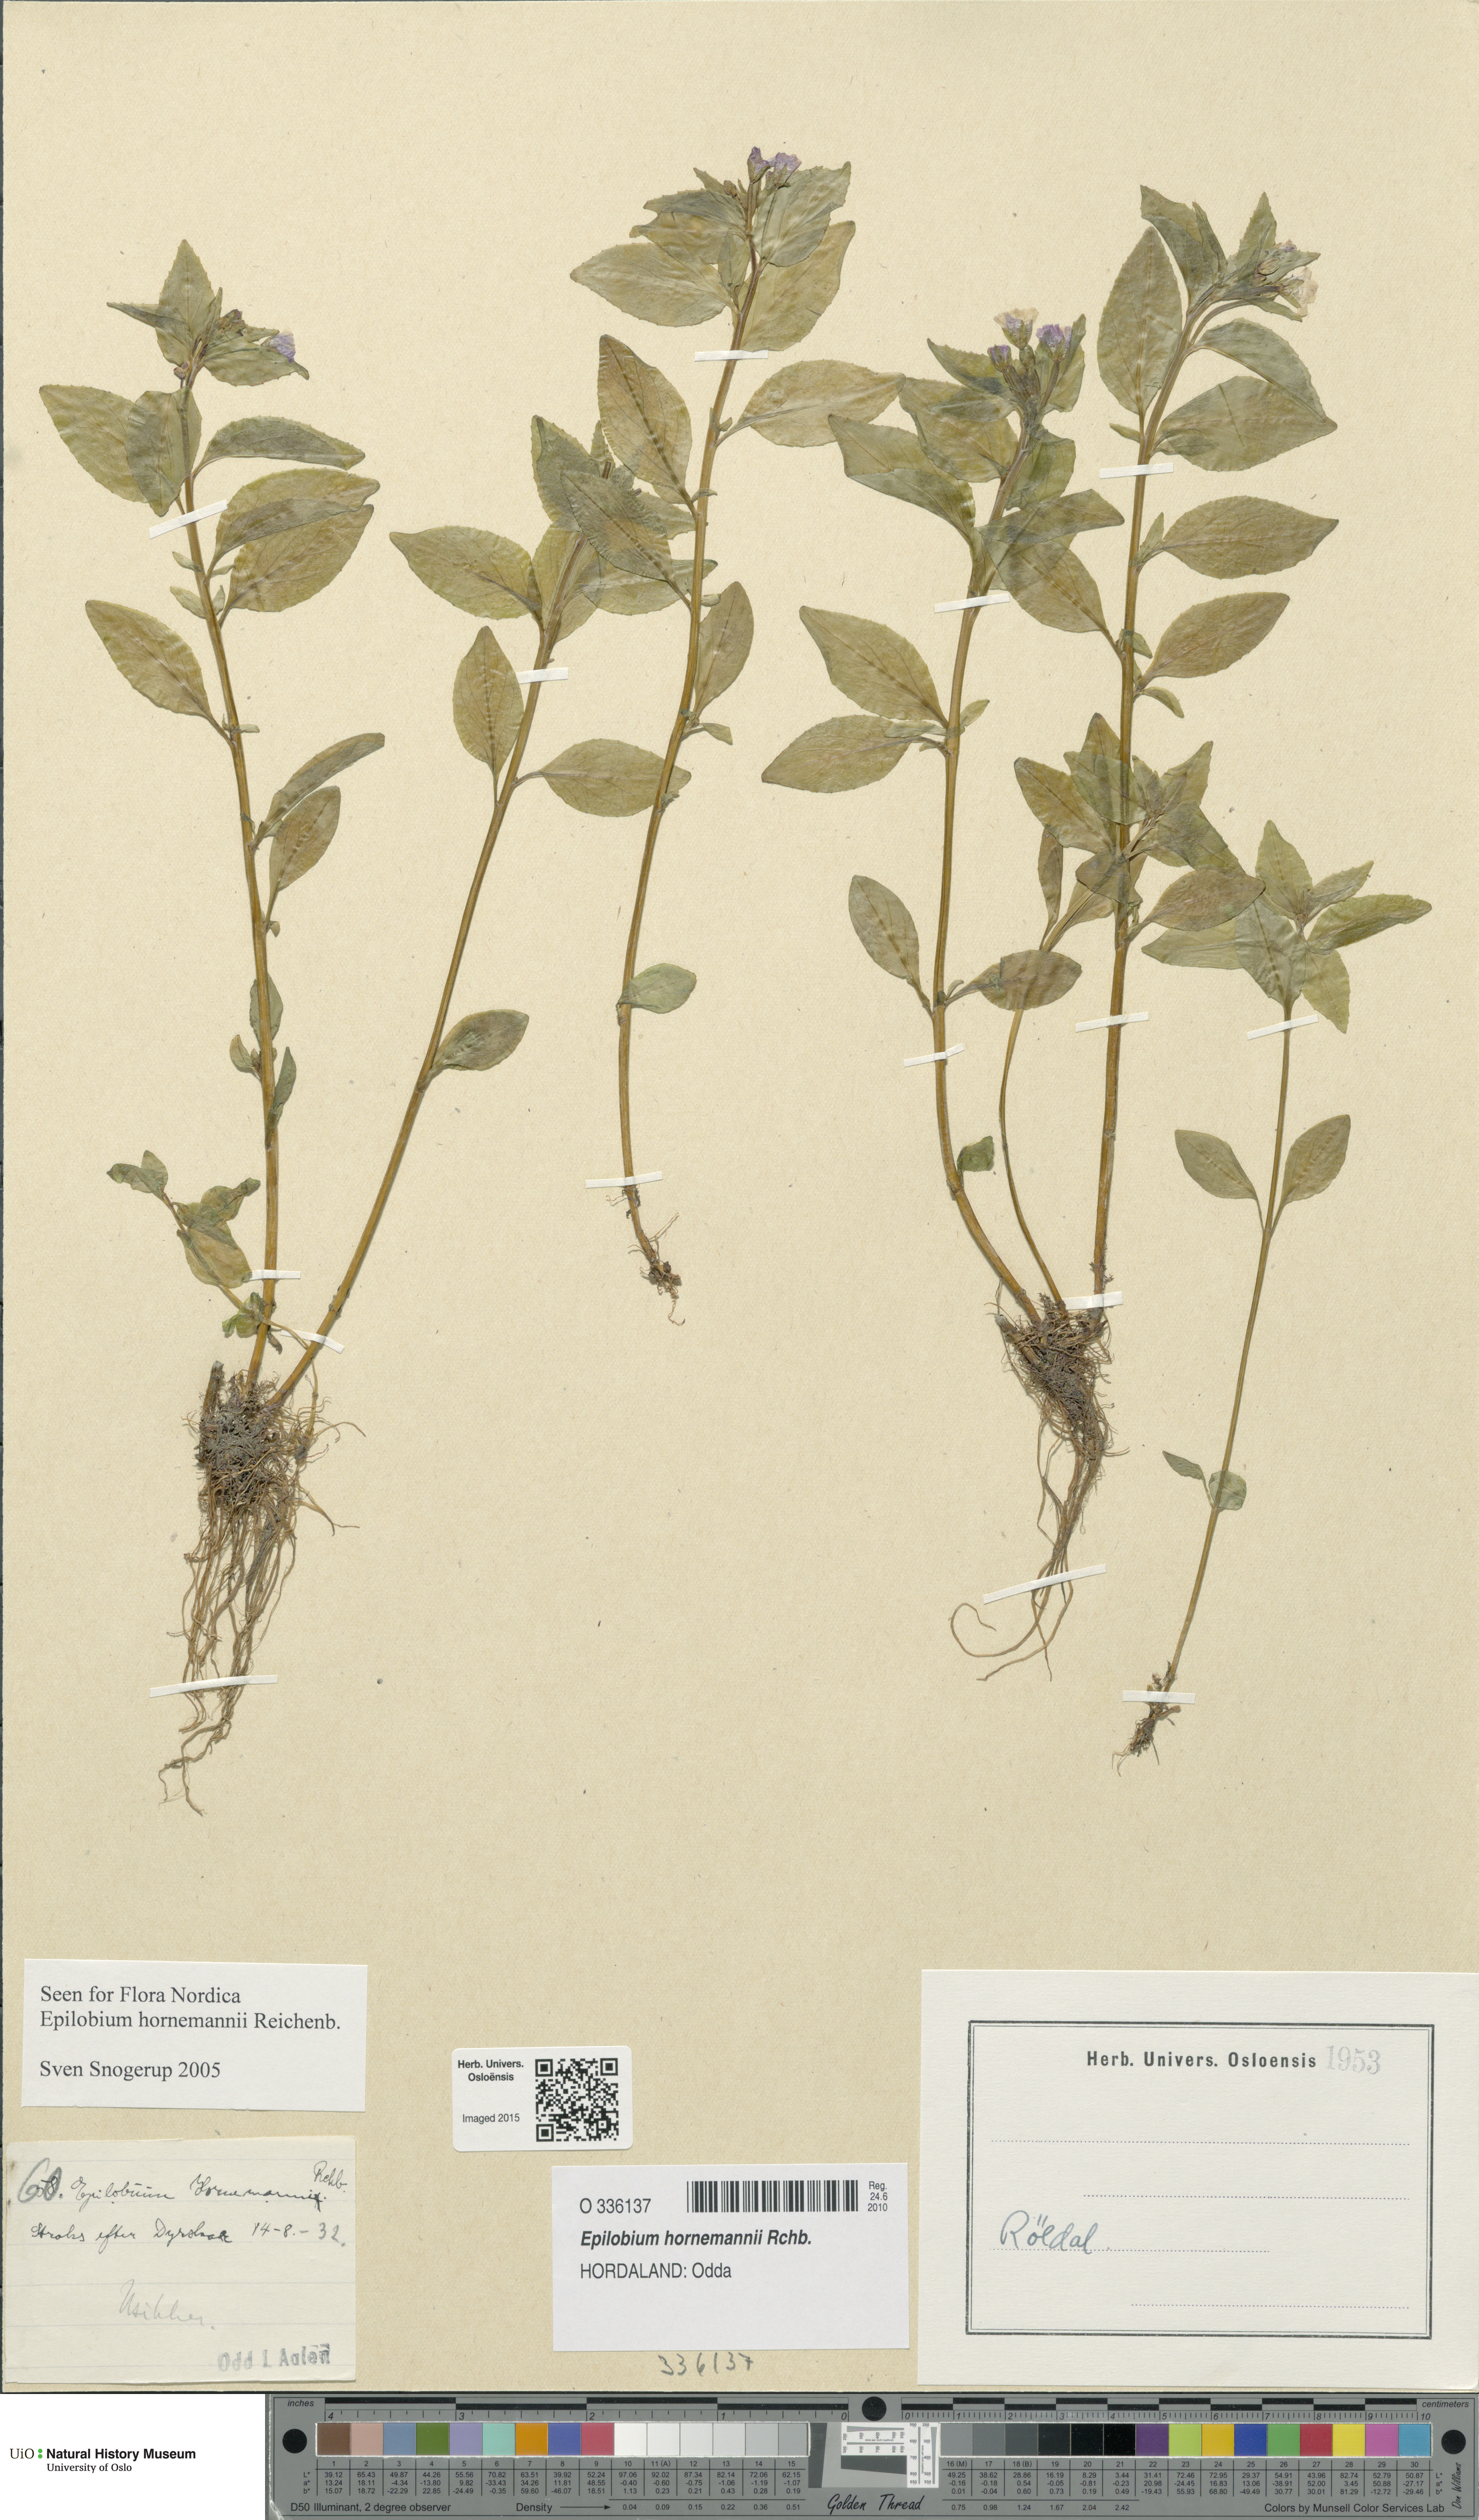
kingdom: Plantae
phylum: Tracheophyta
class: Magnoliopsida
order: Myrtales
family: Onagraceae
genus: Epilobium
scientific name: Epilobium hornemannii
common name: Hornemann's willowherb
